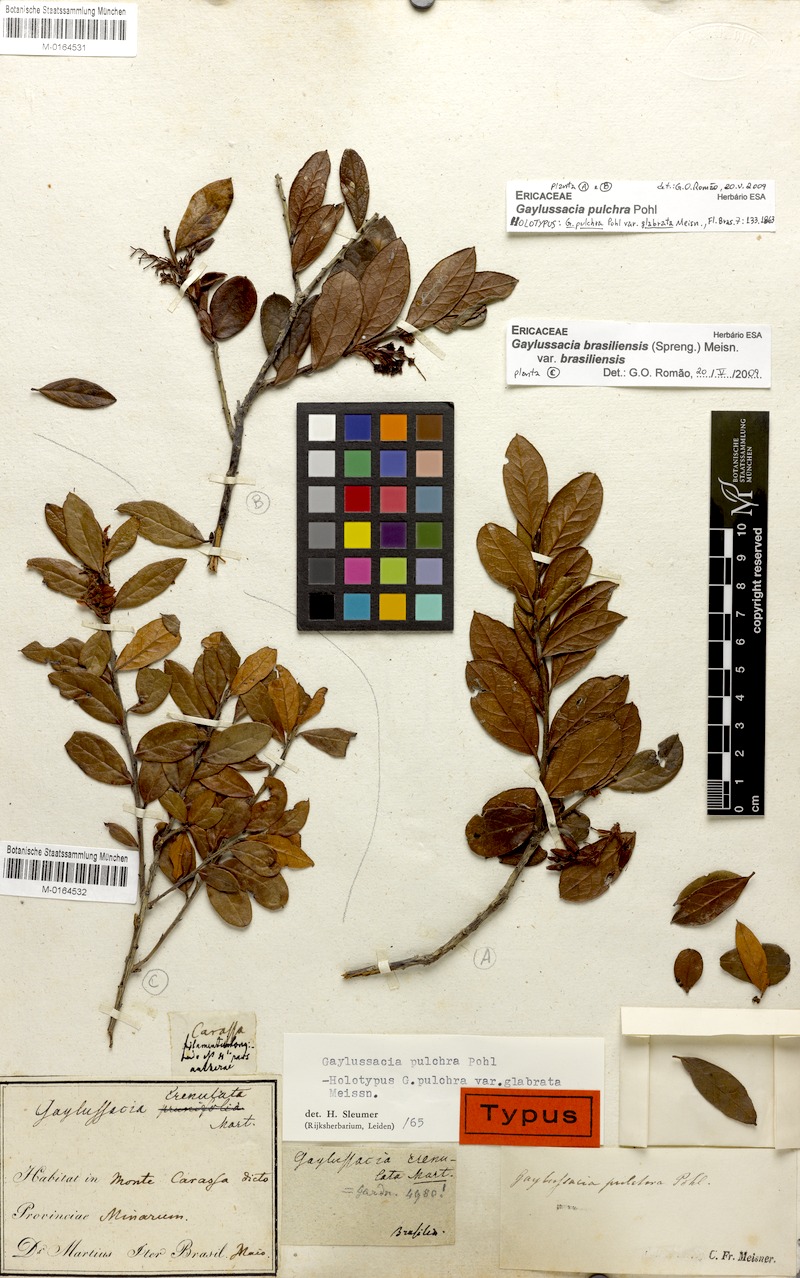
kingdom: Plantae
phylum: Tracheophyta
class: Magnoliopsida
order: Ericales
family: Ericaceae
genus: Gaylussacia
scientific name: Gaylussacia pulchra
